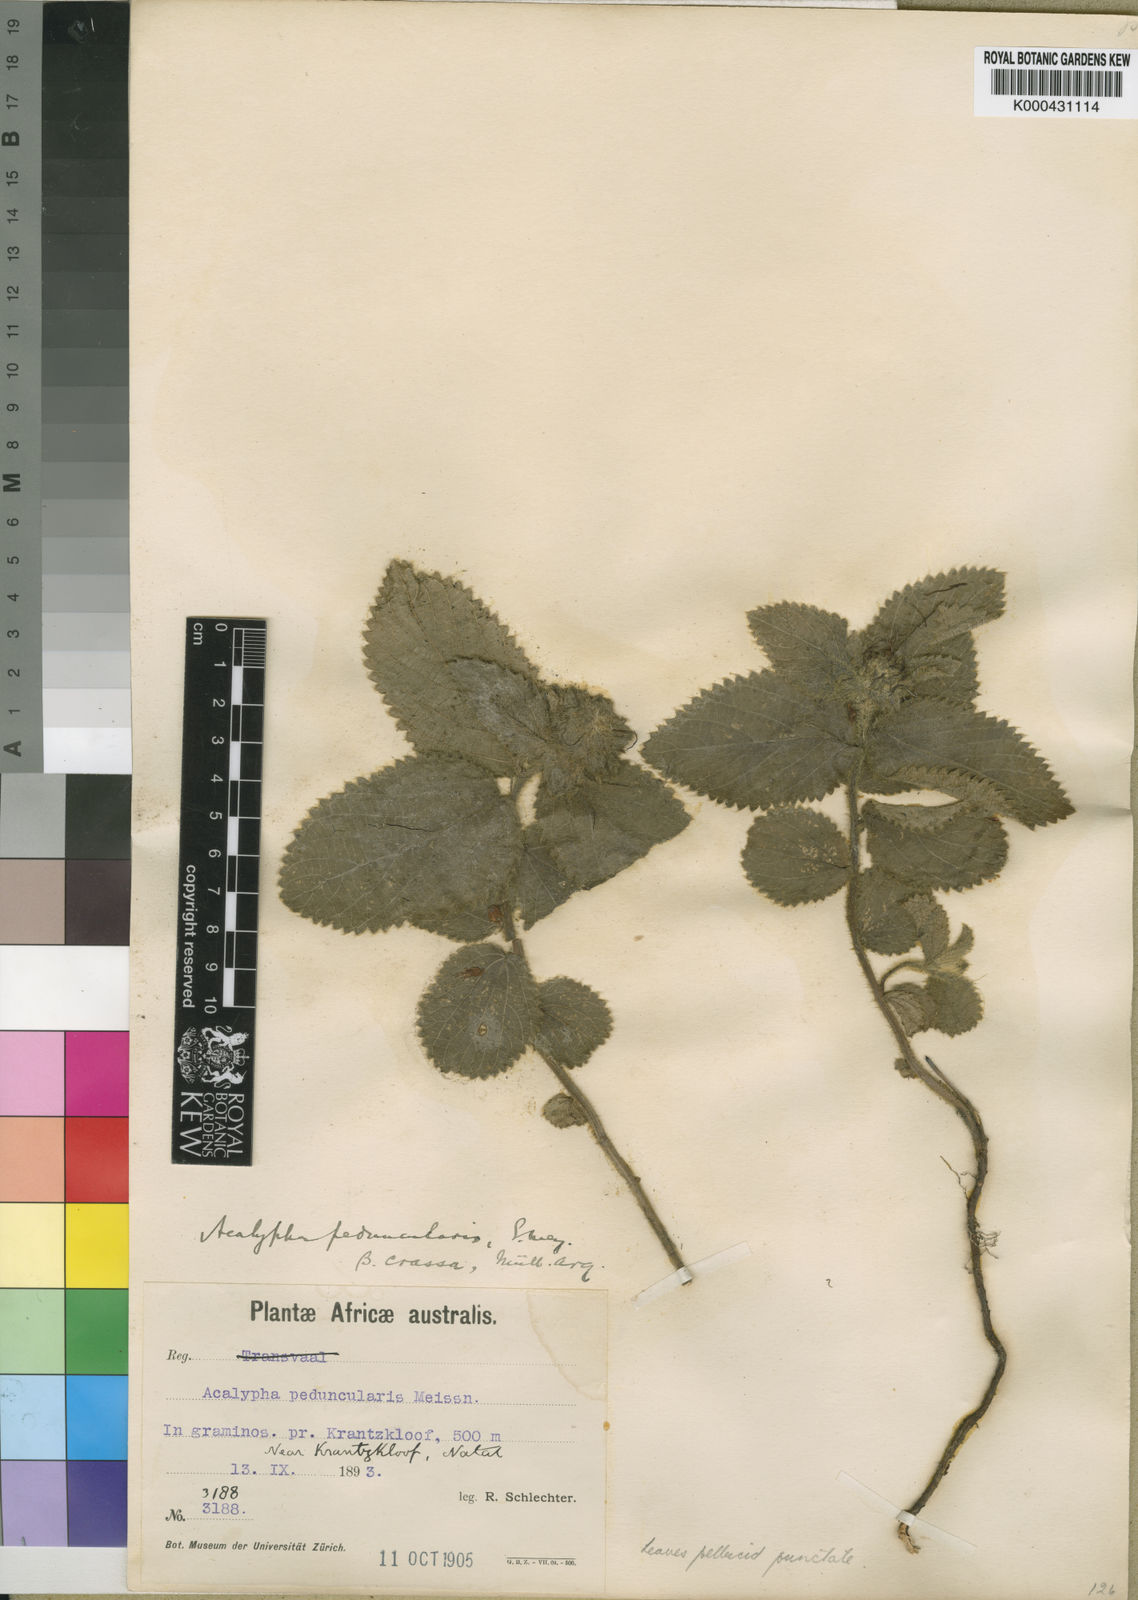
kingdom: Plantae
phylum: Tracheophyta
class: Magnoliopsida
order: Malpighiales
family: Euphorbiaceae
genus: Acalypha
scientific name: Acalypha
